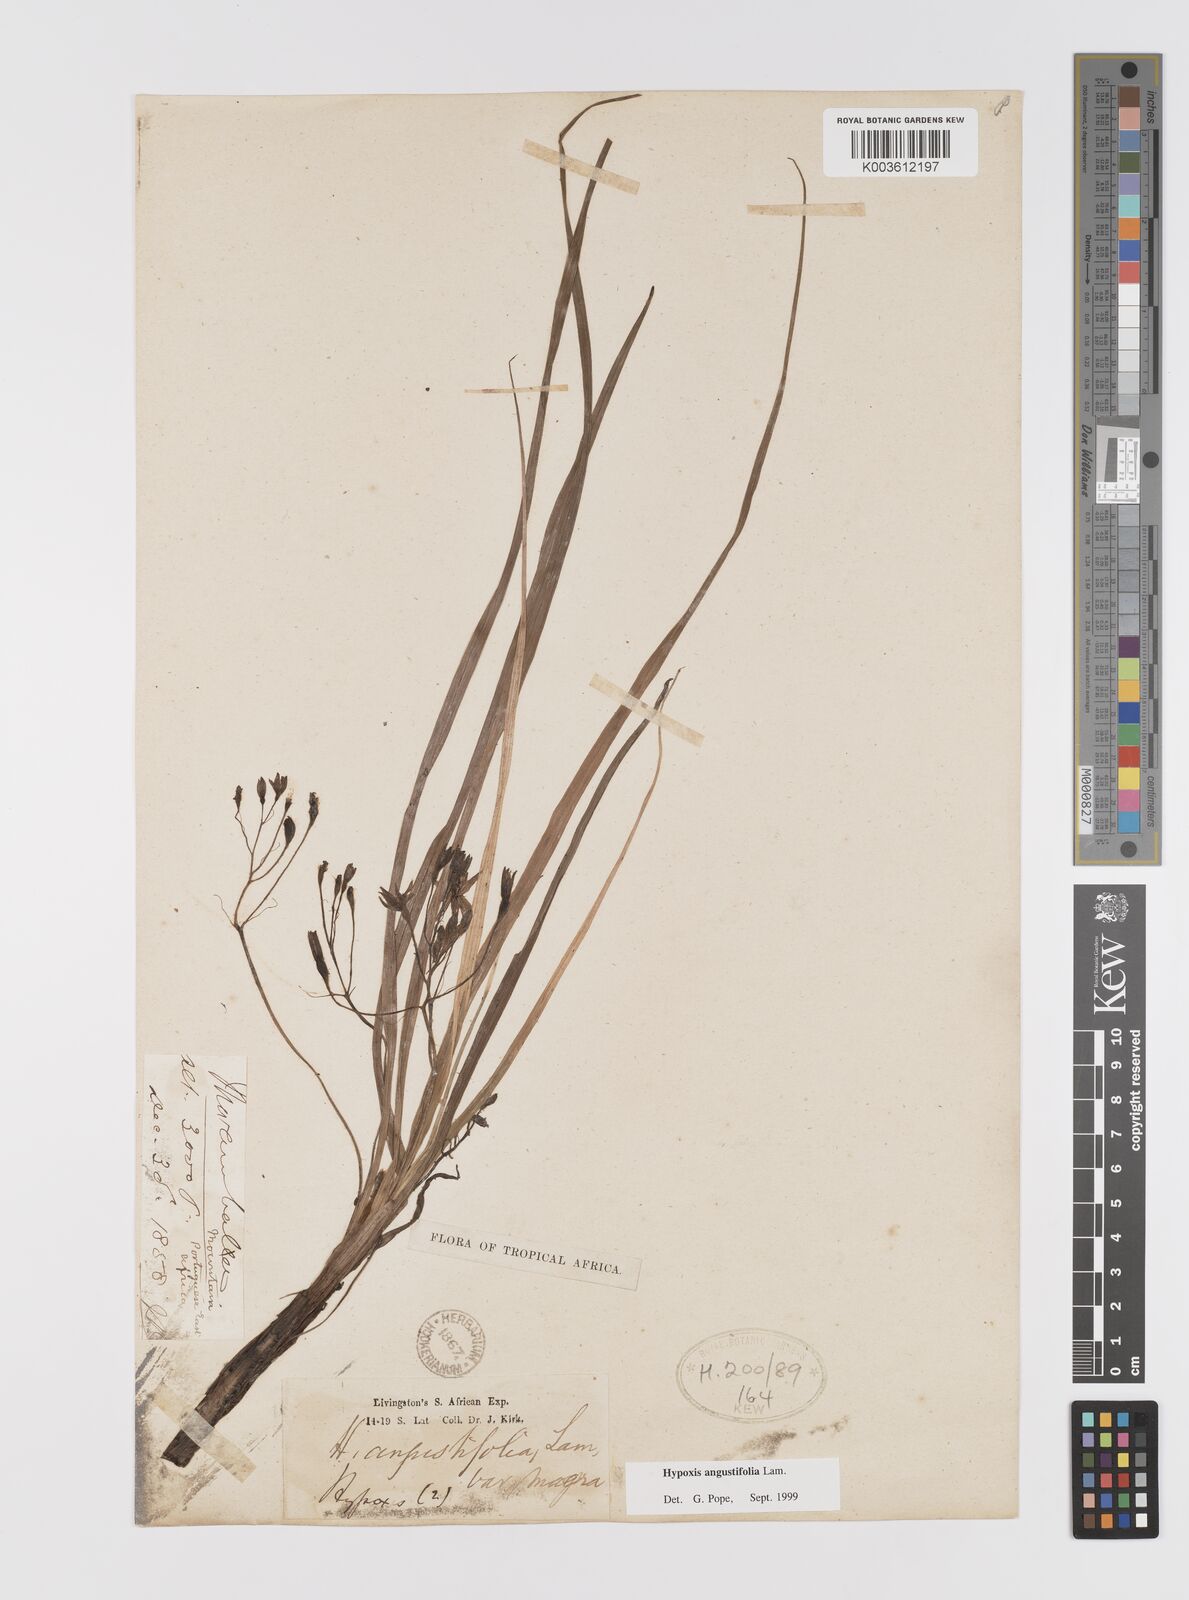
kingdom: Plantae
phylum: Tracheophyta
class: Liliopsida
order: Asparagales
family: Hypoxidaceae
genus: Hypoxis
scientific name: Hypoxis angustifolia
